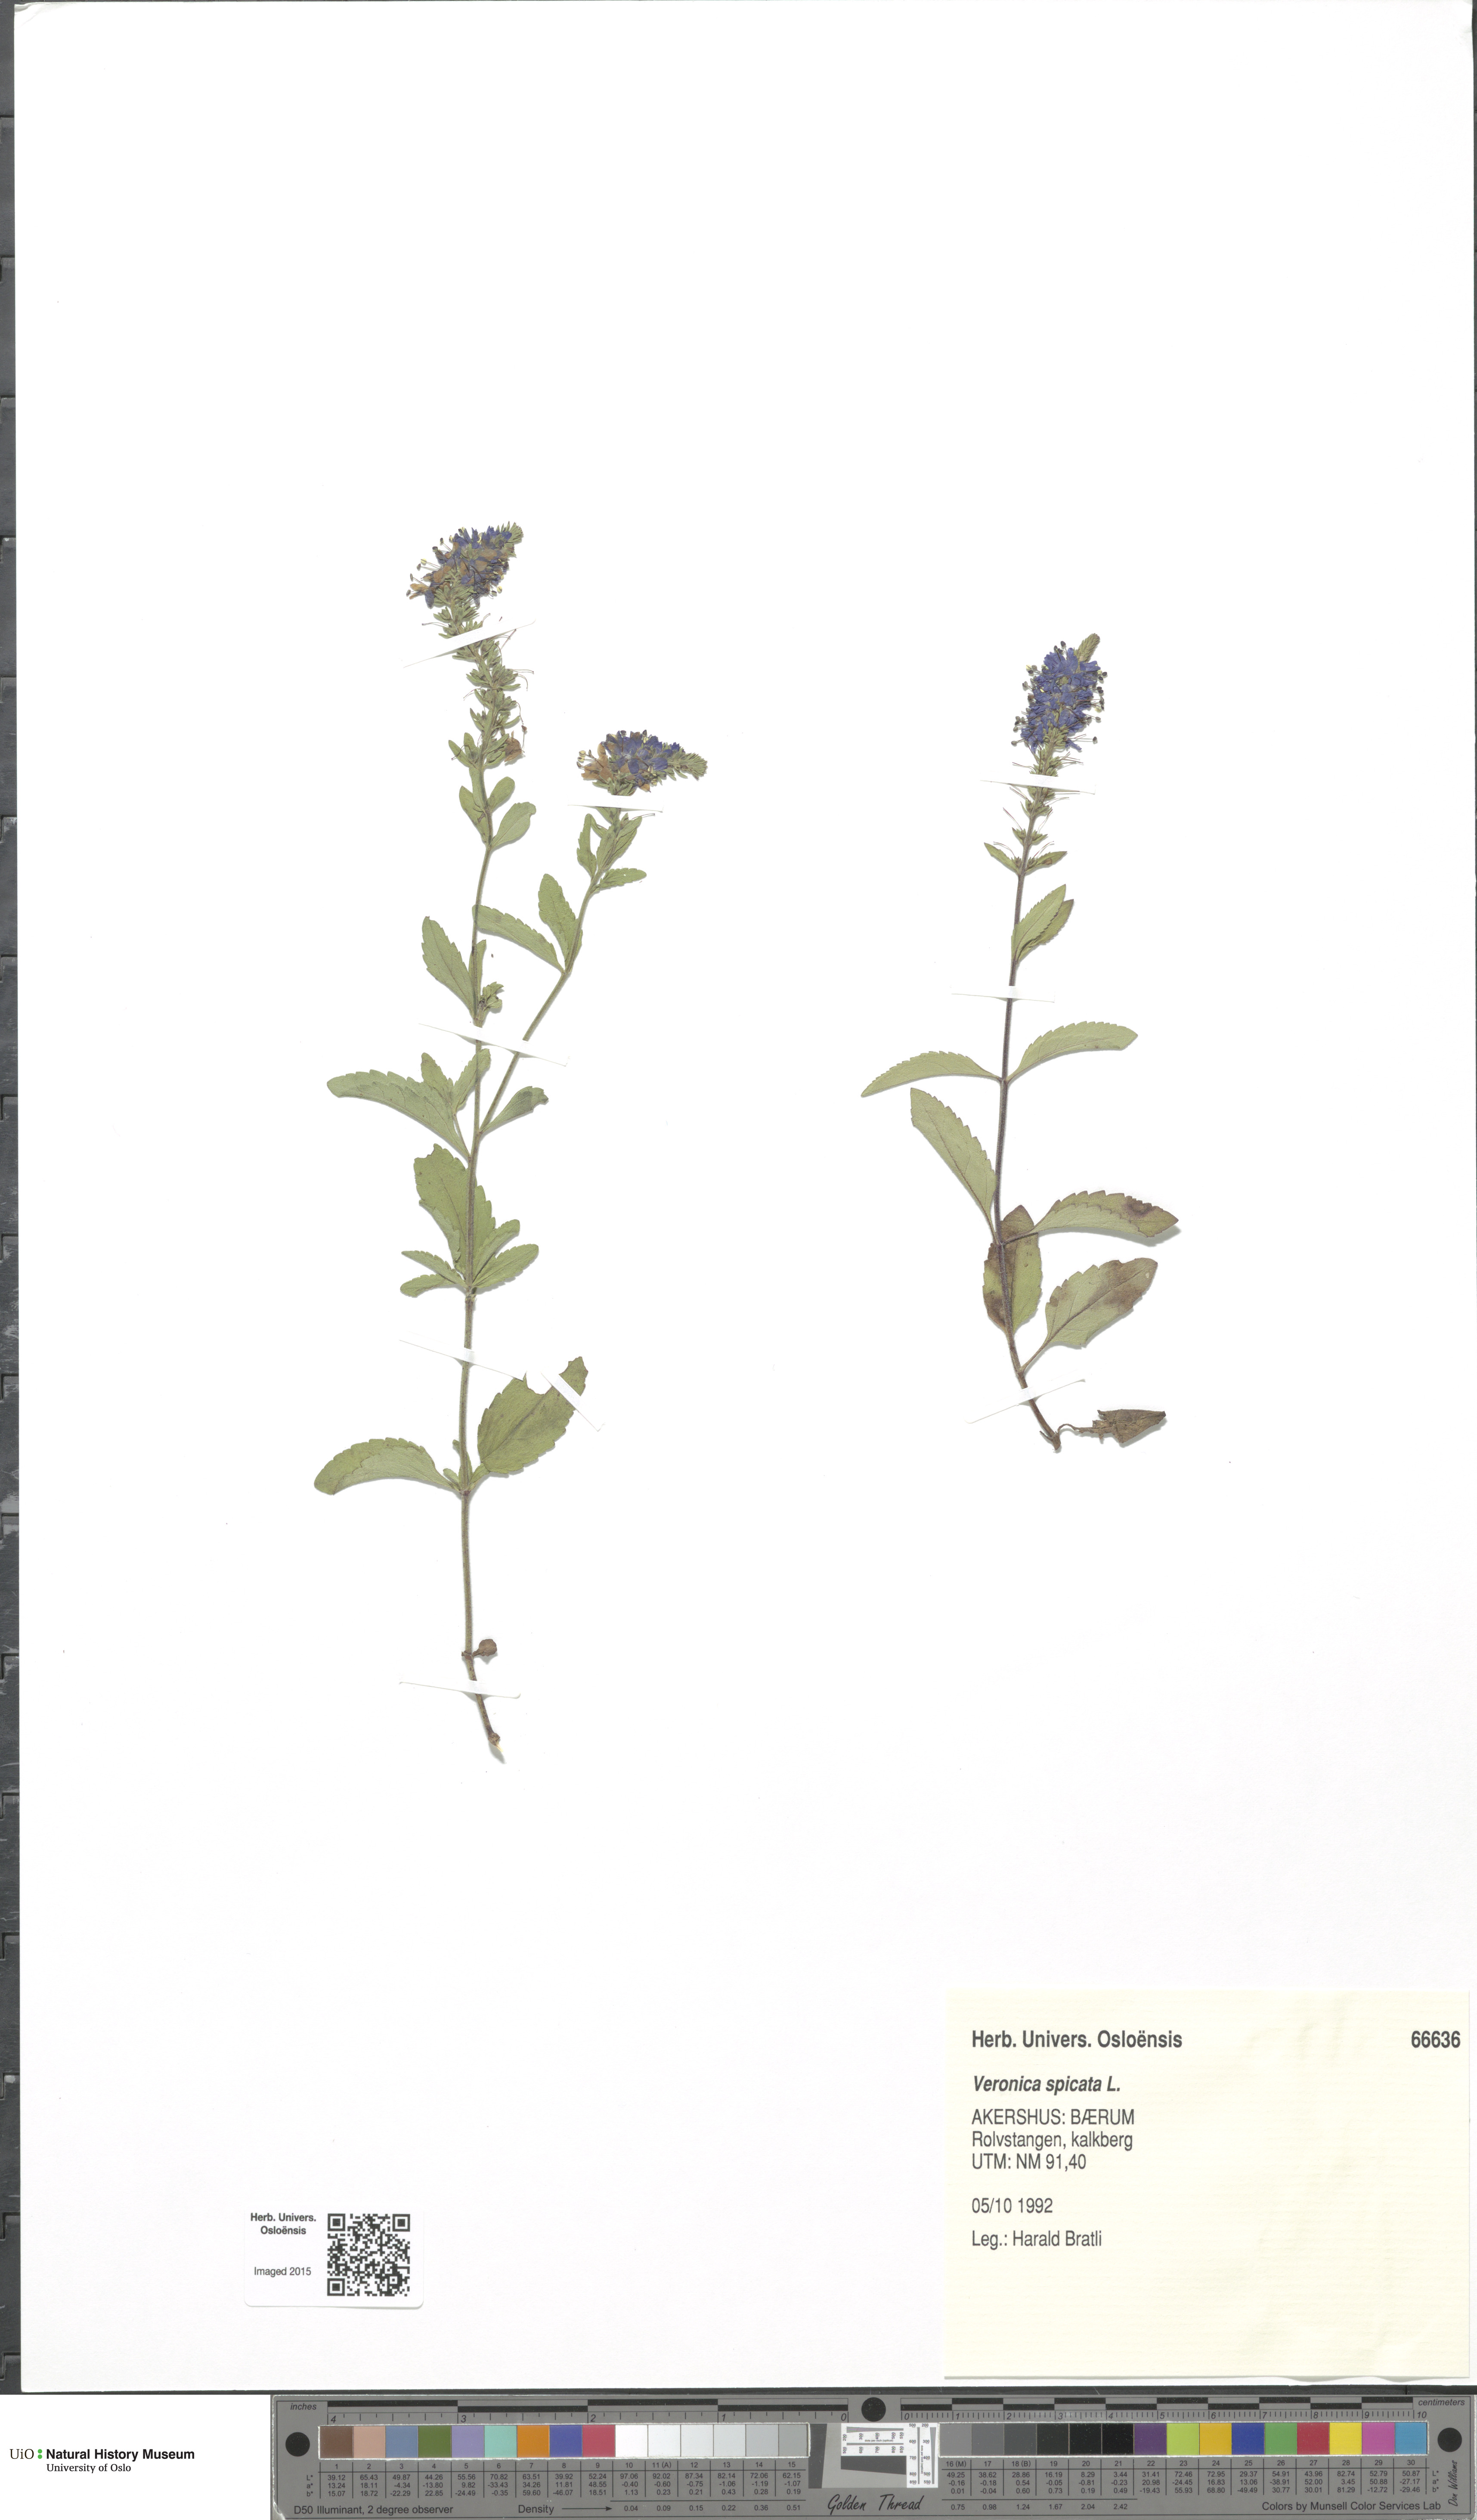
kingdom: Plantae
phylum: Tracheophyta
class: Magnoliopsida
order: Lamiales
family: Plantaginaceae
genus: Veronica
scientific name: Veronica spicata
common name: Spiked speedwell
